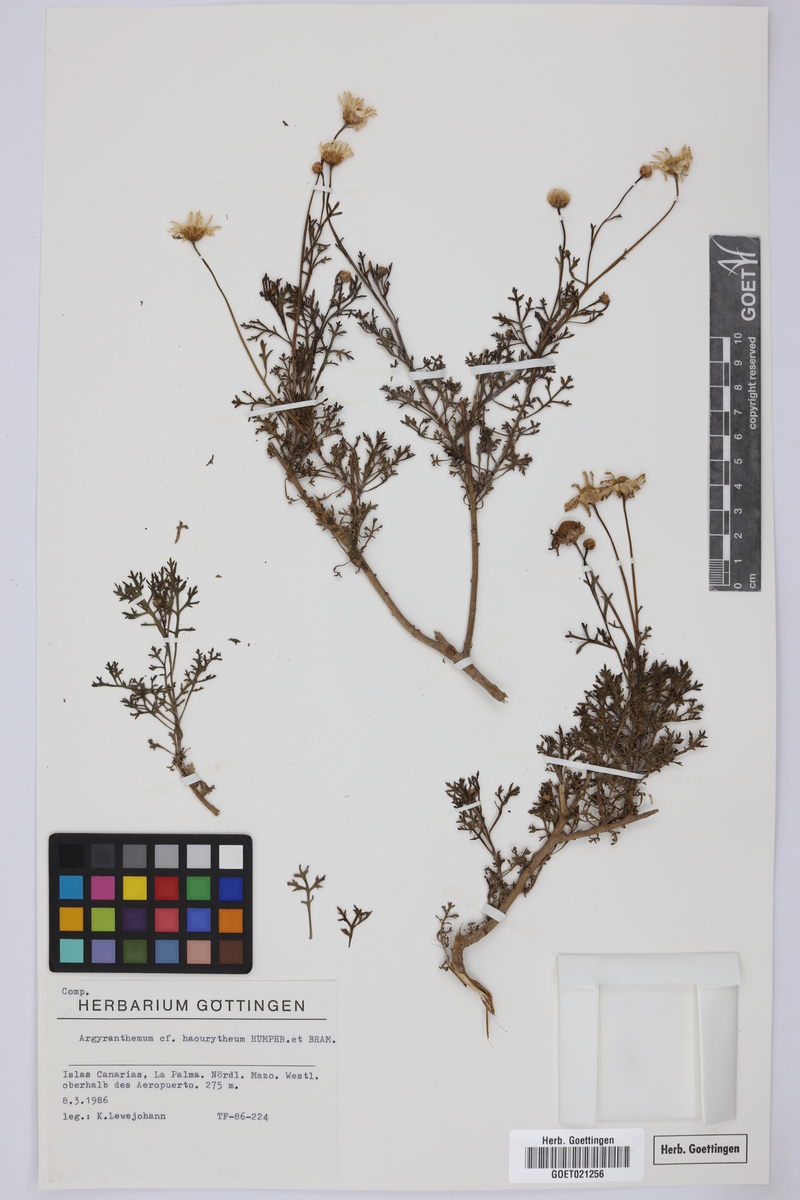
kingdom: Plantae
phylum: Tracheophyta
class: Magnoliopsida
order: Asterales
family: Asteraceae
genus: Argyranthemum
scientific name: Argyranthemum haouarytheum
